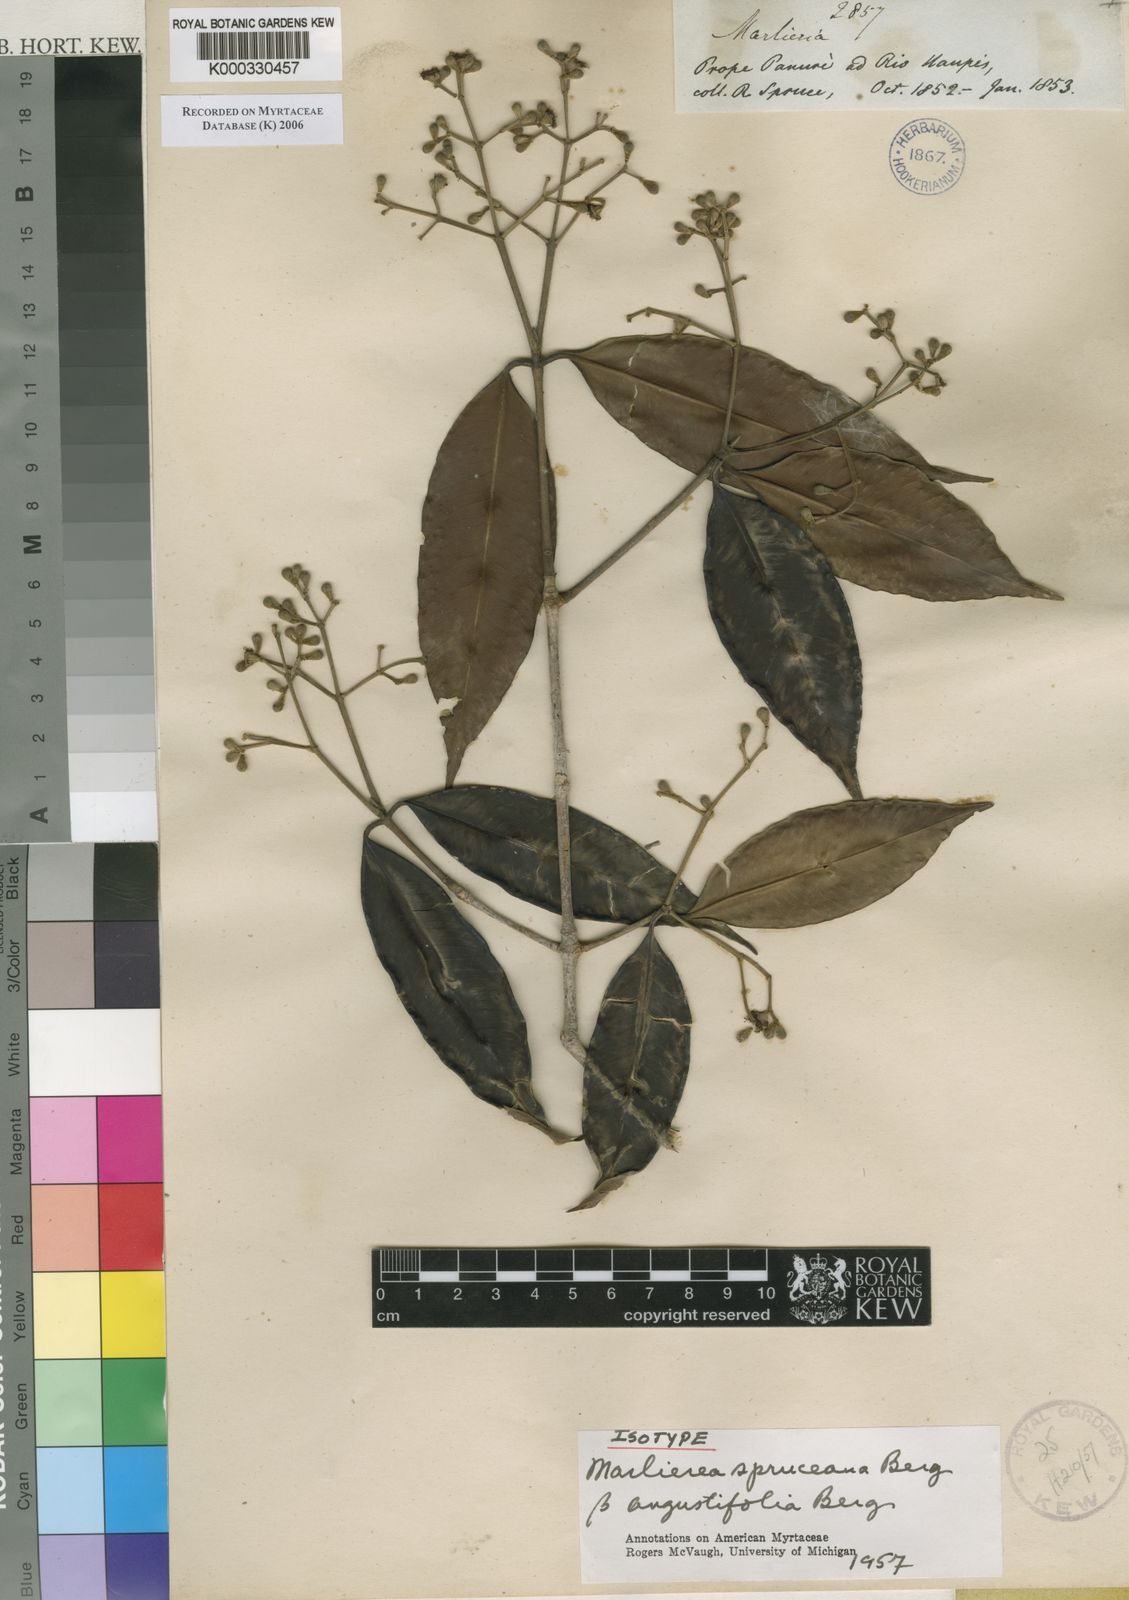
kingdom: Plantae
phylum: Tracheophyta
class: Magnoliopsida
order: Myrtales
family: Myrtaceae
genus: Myrcia
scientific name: Myrcia argentigemma
